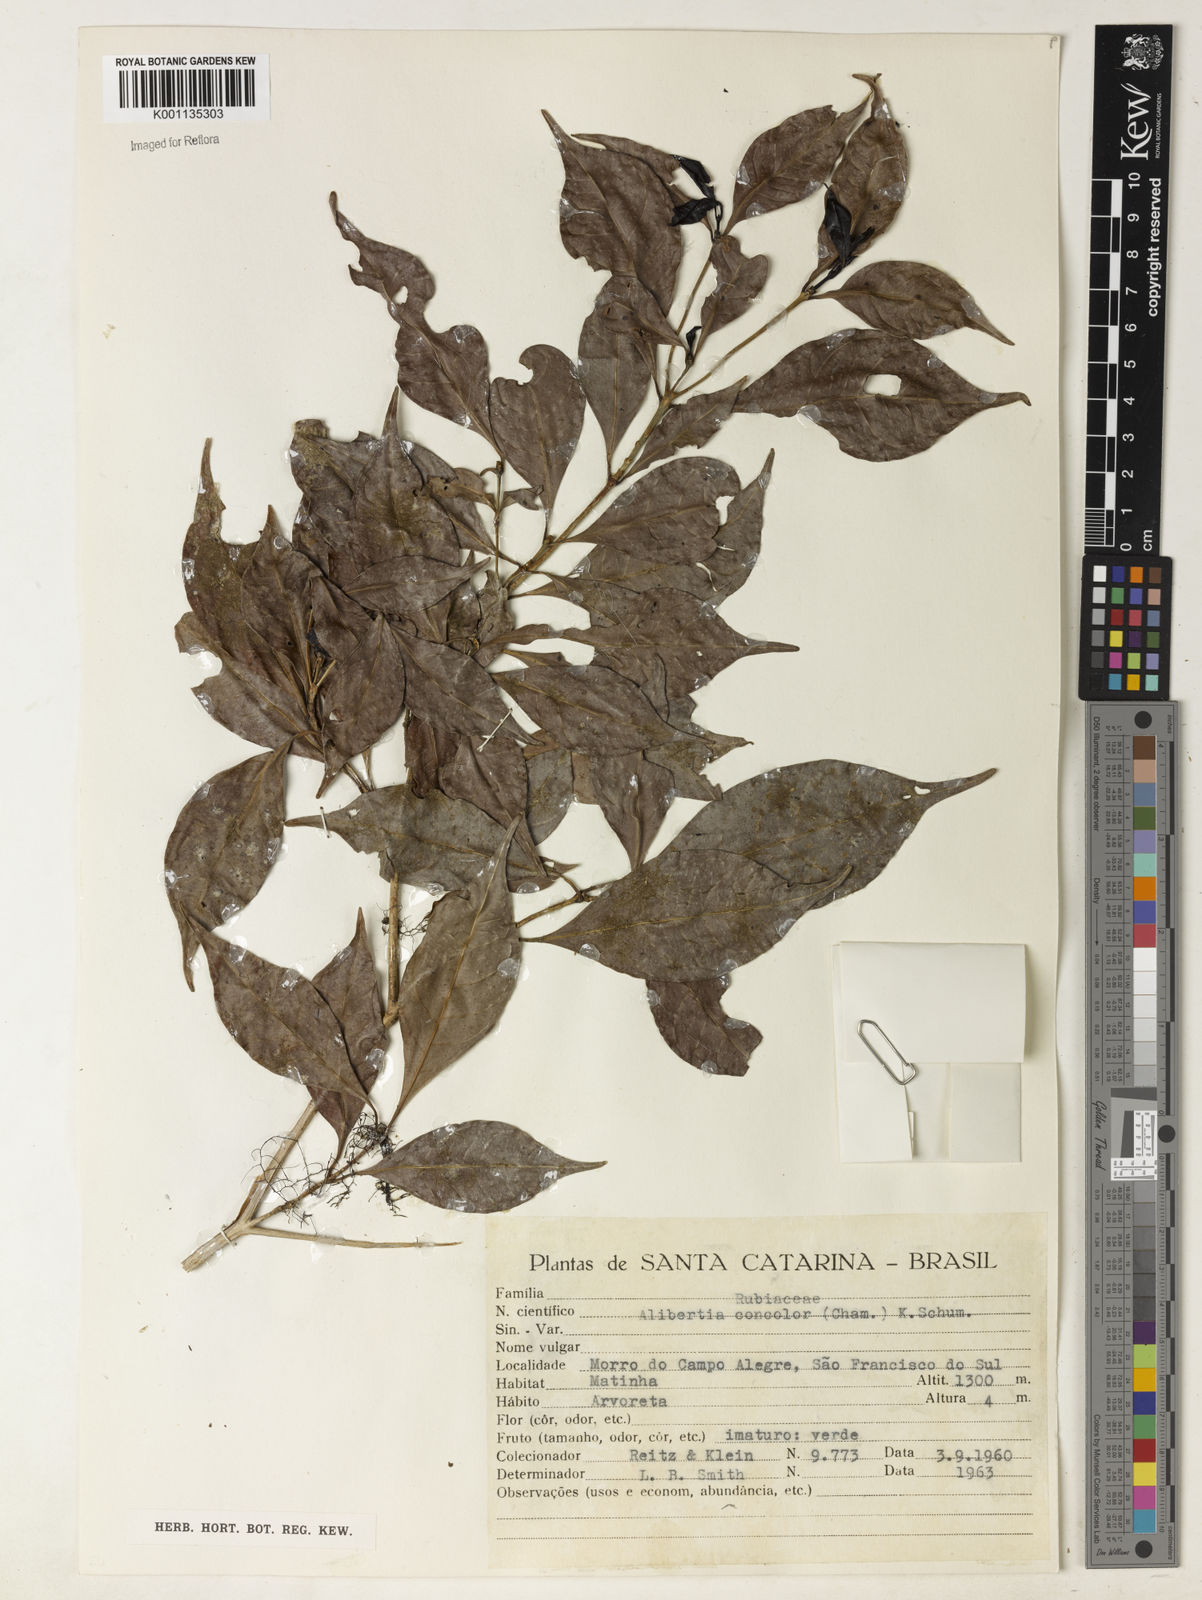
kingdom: Plantae
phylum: Tracheophyta
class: Magnoliopsida
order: Gentianales
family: Rubiaceae
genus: Cordiera
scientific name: Cordiera concolor
